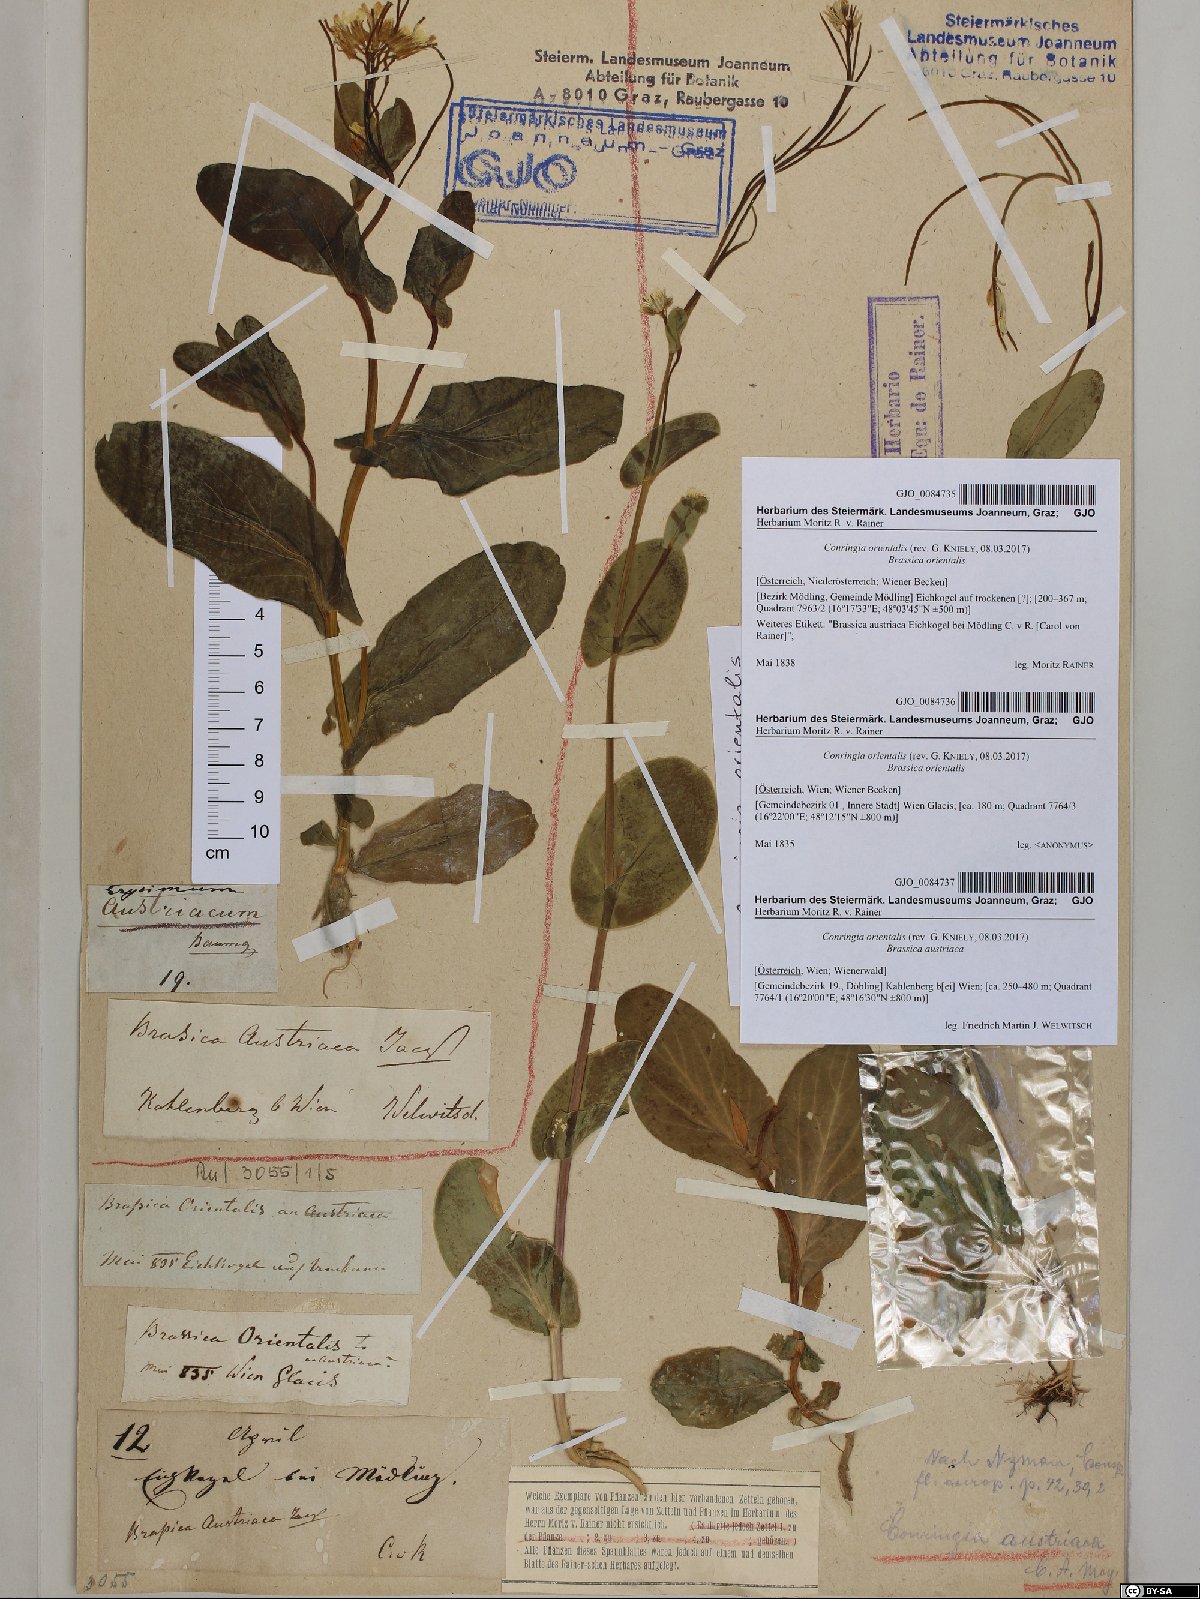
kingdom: Plantae
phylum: Tracheophyta
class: Magnoliopsida
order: Brassicales
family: Brassicaceae
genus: Conringia
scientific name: Conringia orientalis
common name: Hare's ear mustard
